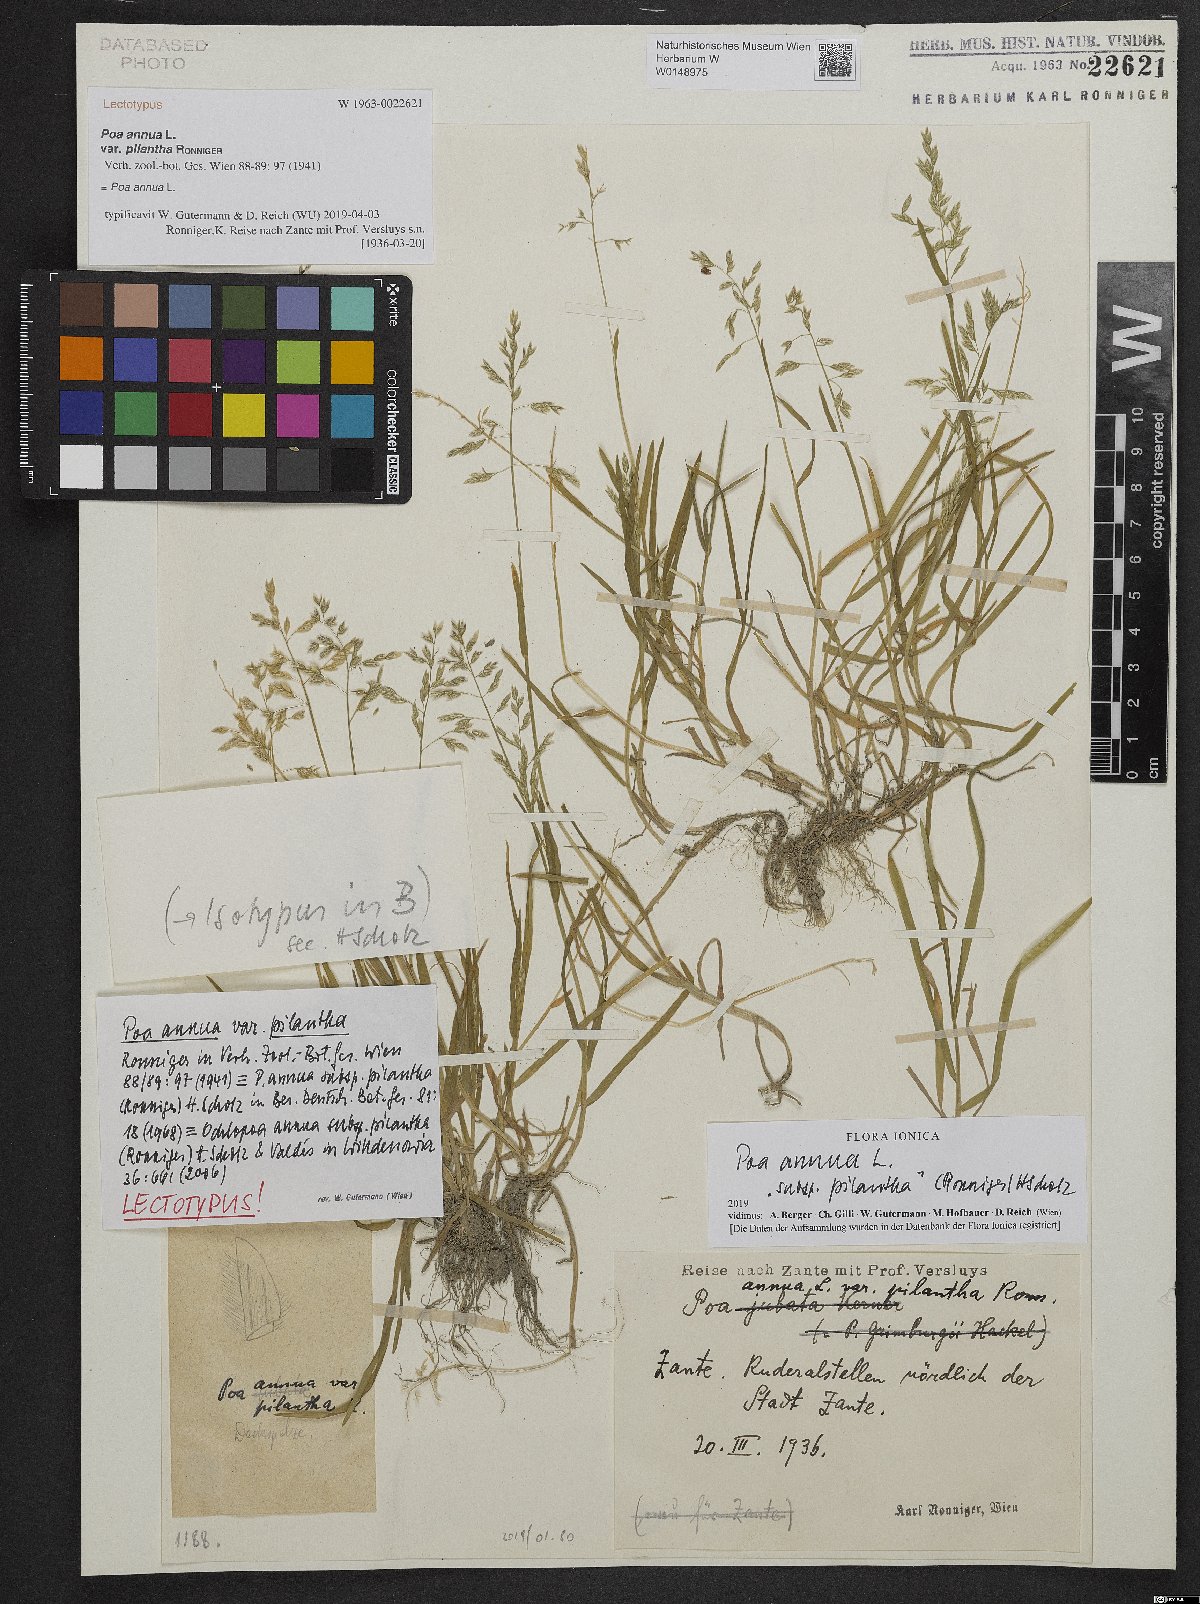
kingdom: Plantae
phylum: Tracheophyta
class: Liliopsida
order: Poales
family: Poaceae
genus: Poa
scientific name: Poa annua
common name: Annual bluegrass
